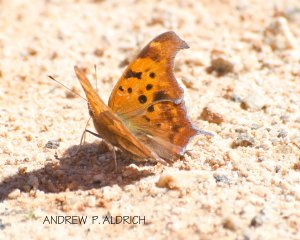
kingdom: Animalia
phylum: Arthropoda
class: Insecta
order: Lepidoptera
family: Nymphalidae
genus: Polygonia
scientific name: Polygonia interrogationis
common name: Question Mark
